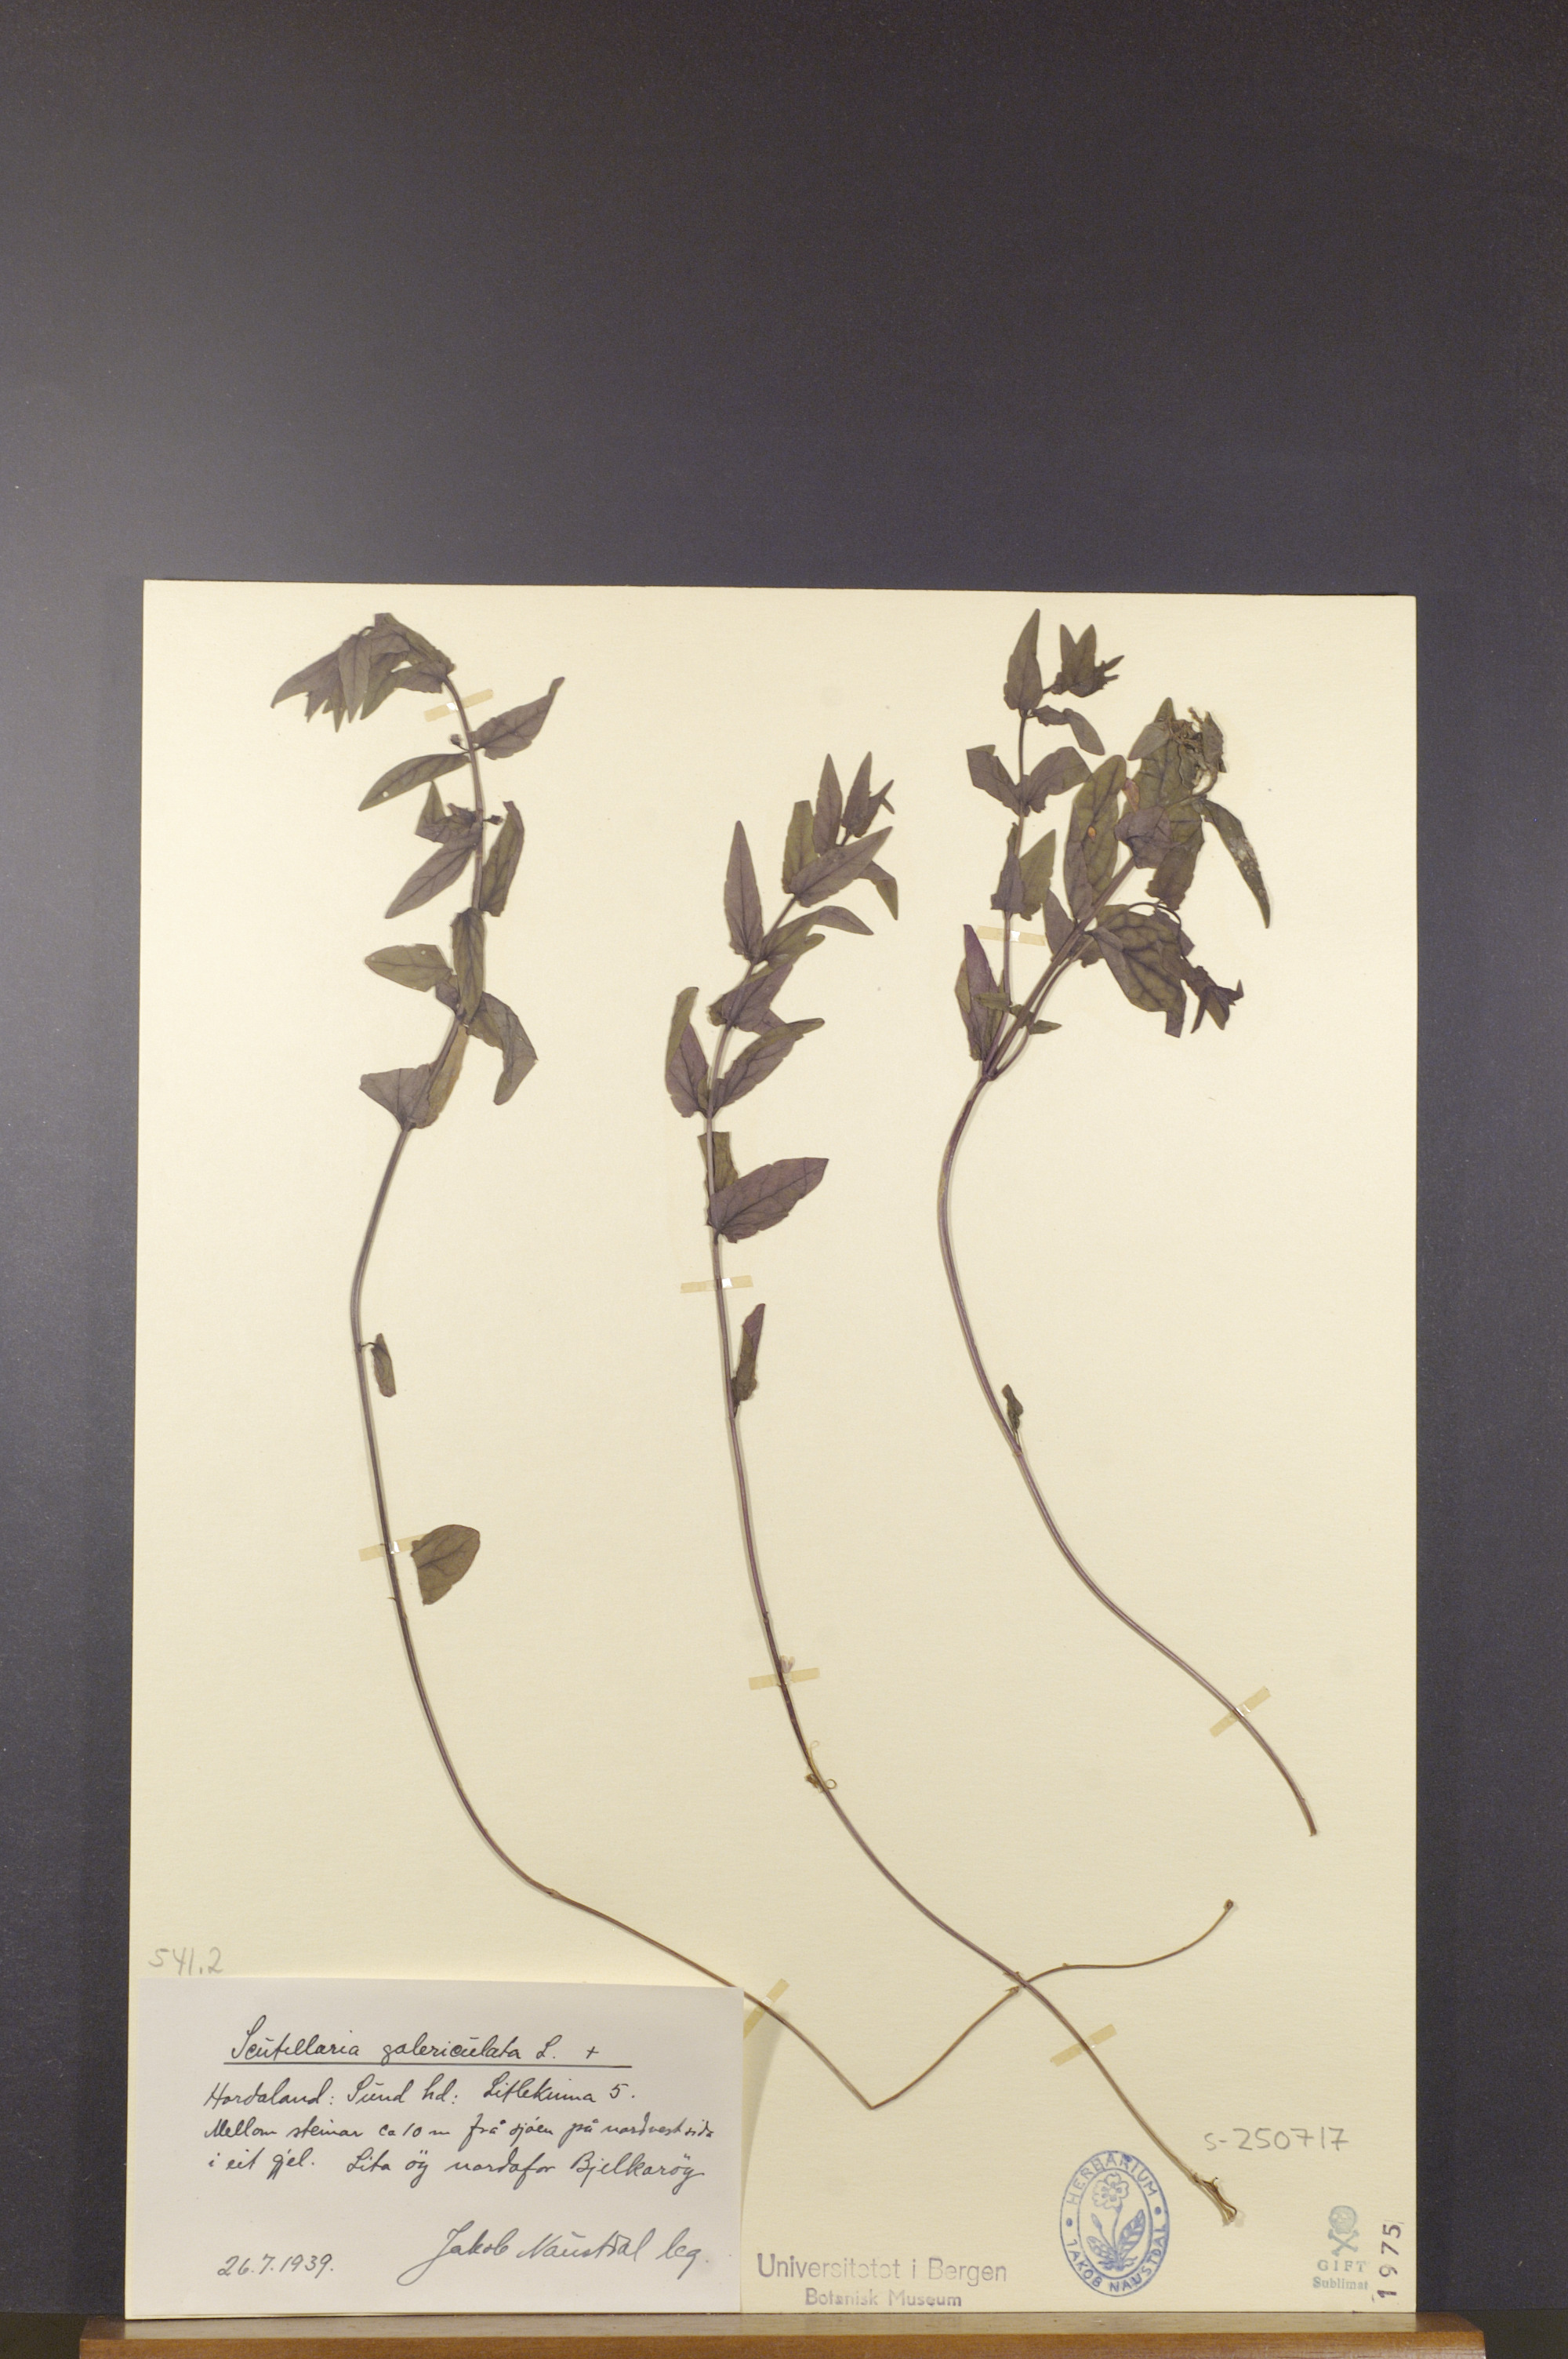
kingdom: Plantae
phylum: Tracheophyta
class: Magnoliopsida
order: Lamiales
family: Lamiaceae
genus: Scutellaria
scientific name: Scutellaria galericulata
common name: Skullcap
